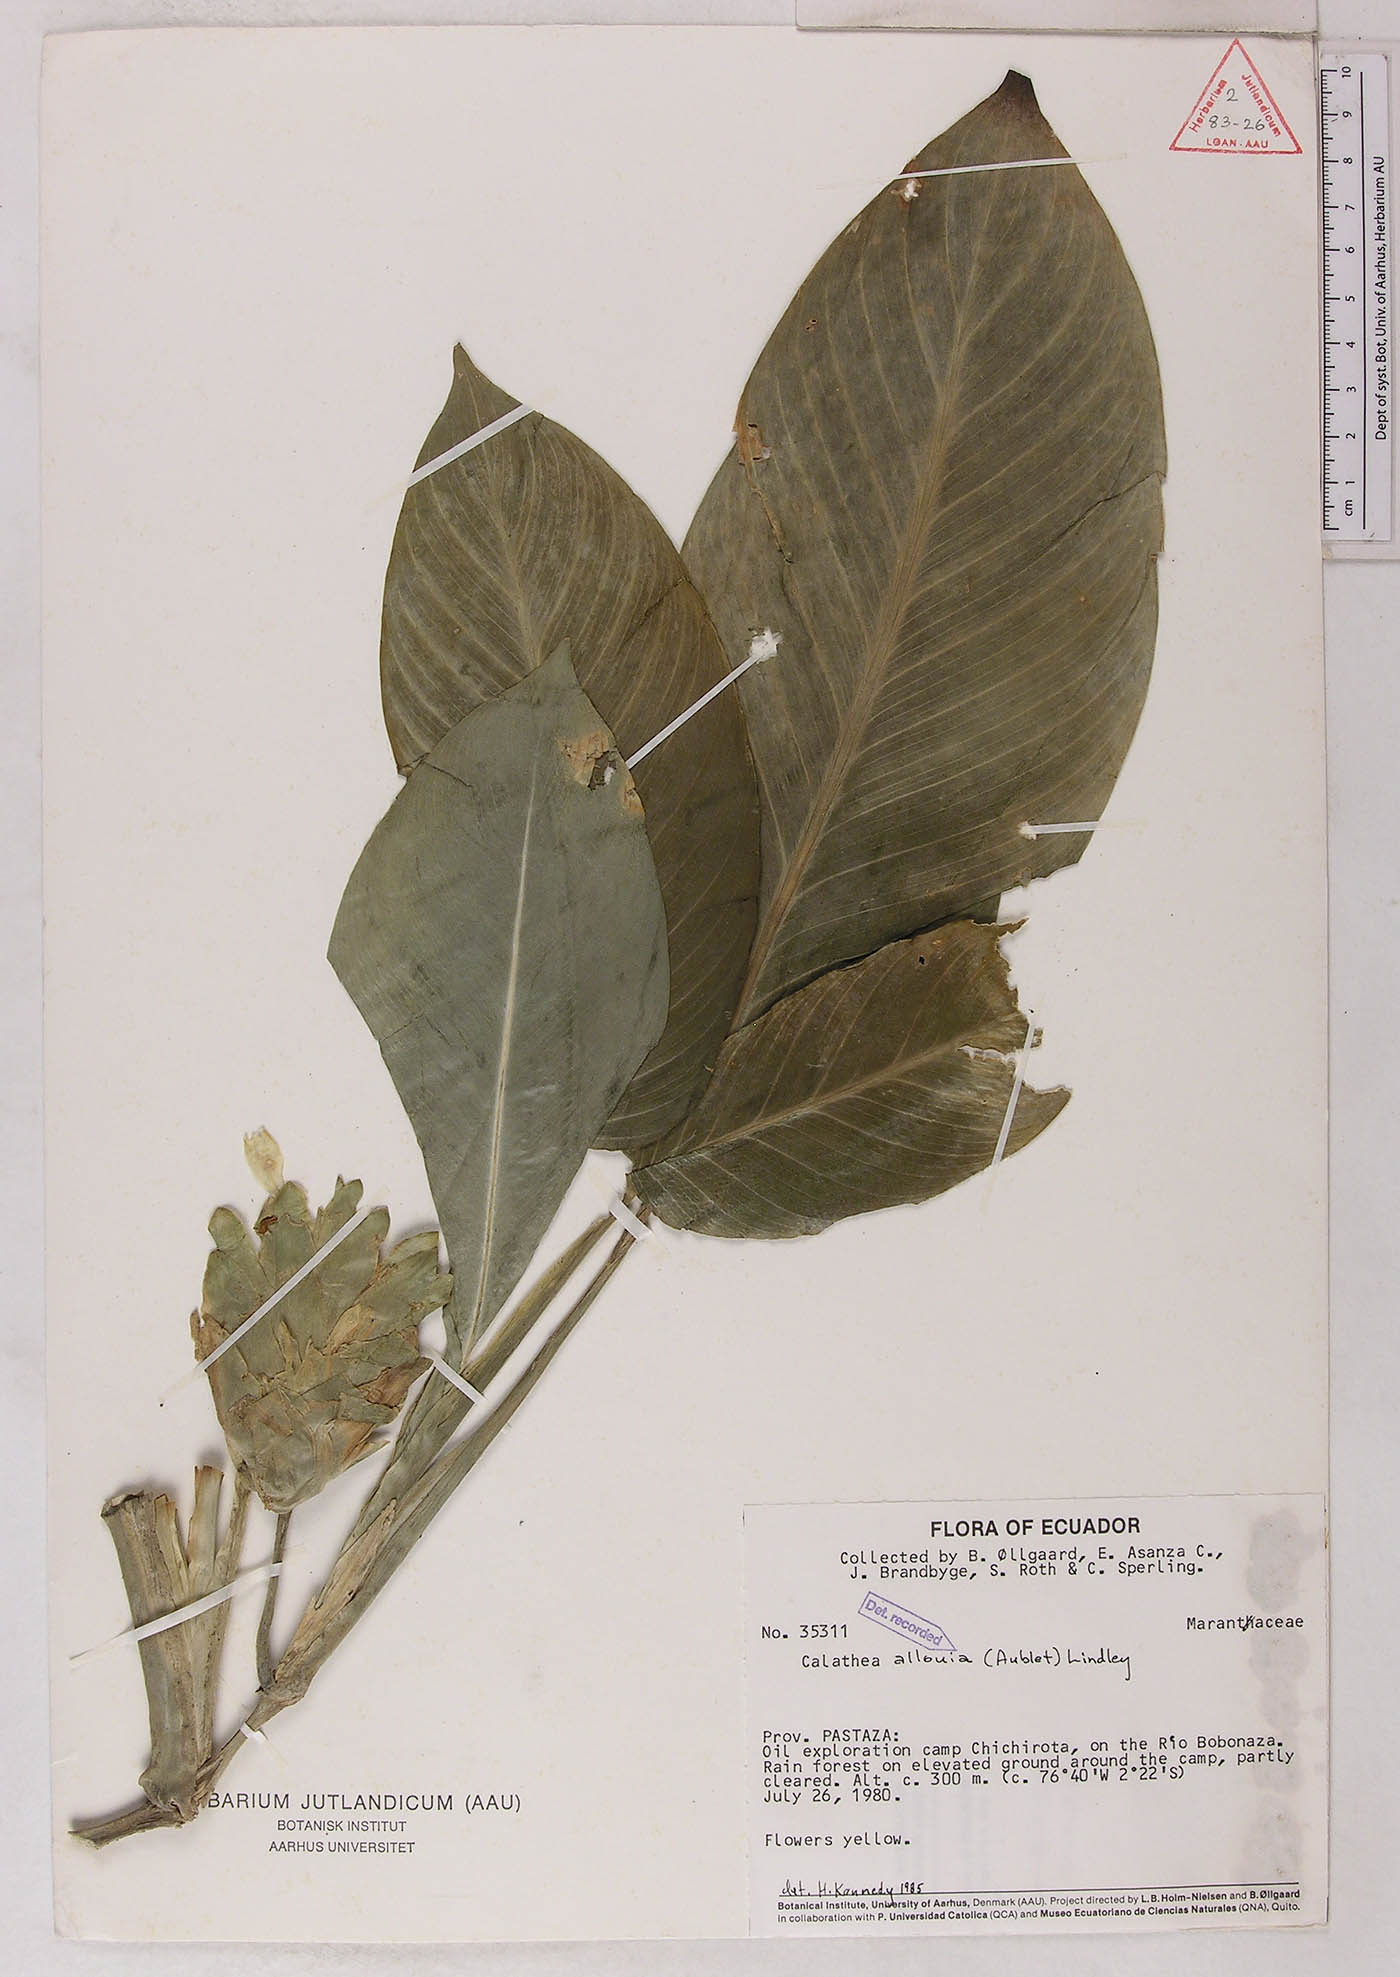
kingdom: Plantae
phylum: Tracheophyta
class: Liliopsida
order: Zingiberales
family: Marantaceae
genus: Goeppertia
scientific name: Goeppertia allouia
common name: Sweet corn-tuber
